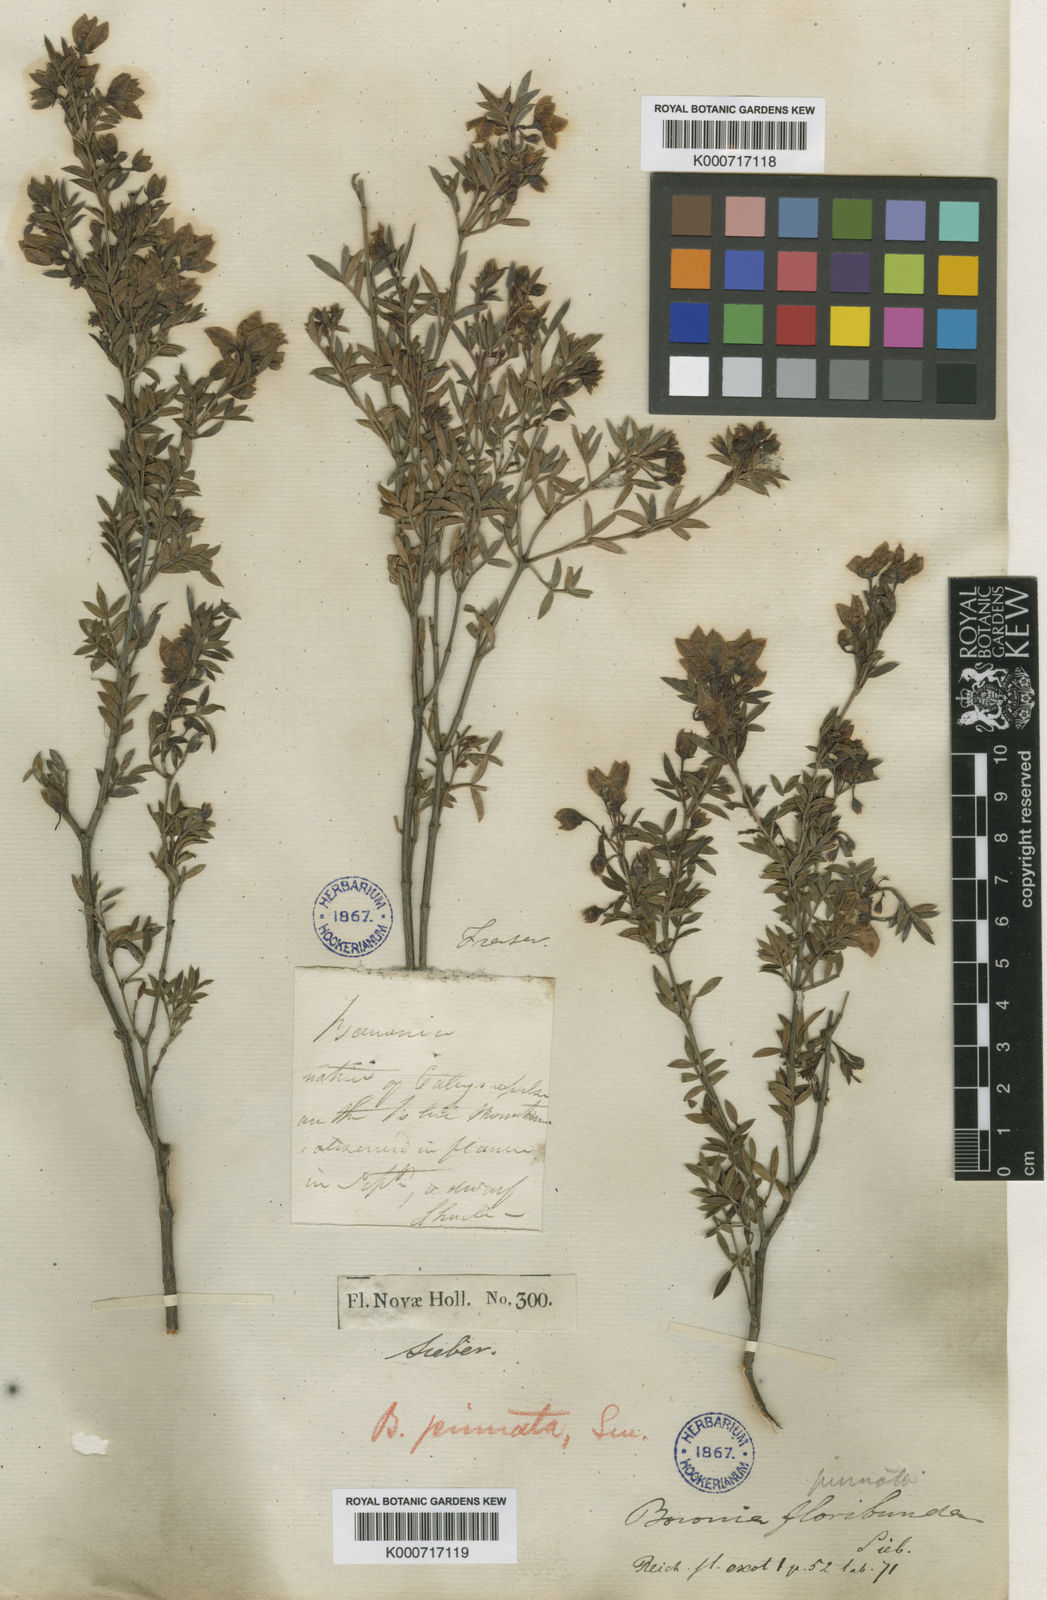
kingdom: Plantae
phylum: Tracheophyta
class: Magnoliopsida
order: Sapindales
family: Rutaceae
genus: Boronia
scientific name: Boronia floribunda
